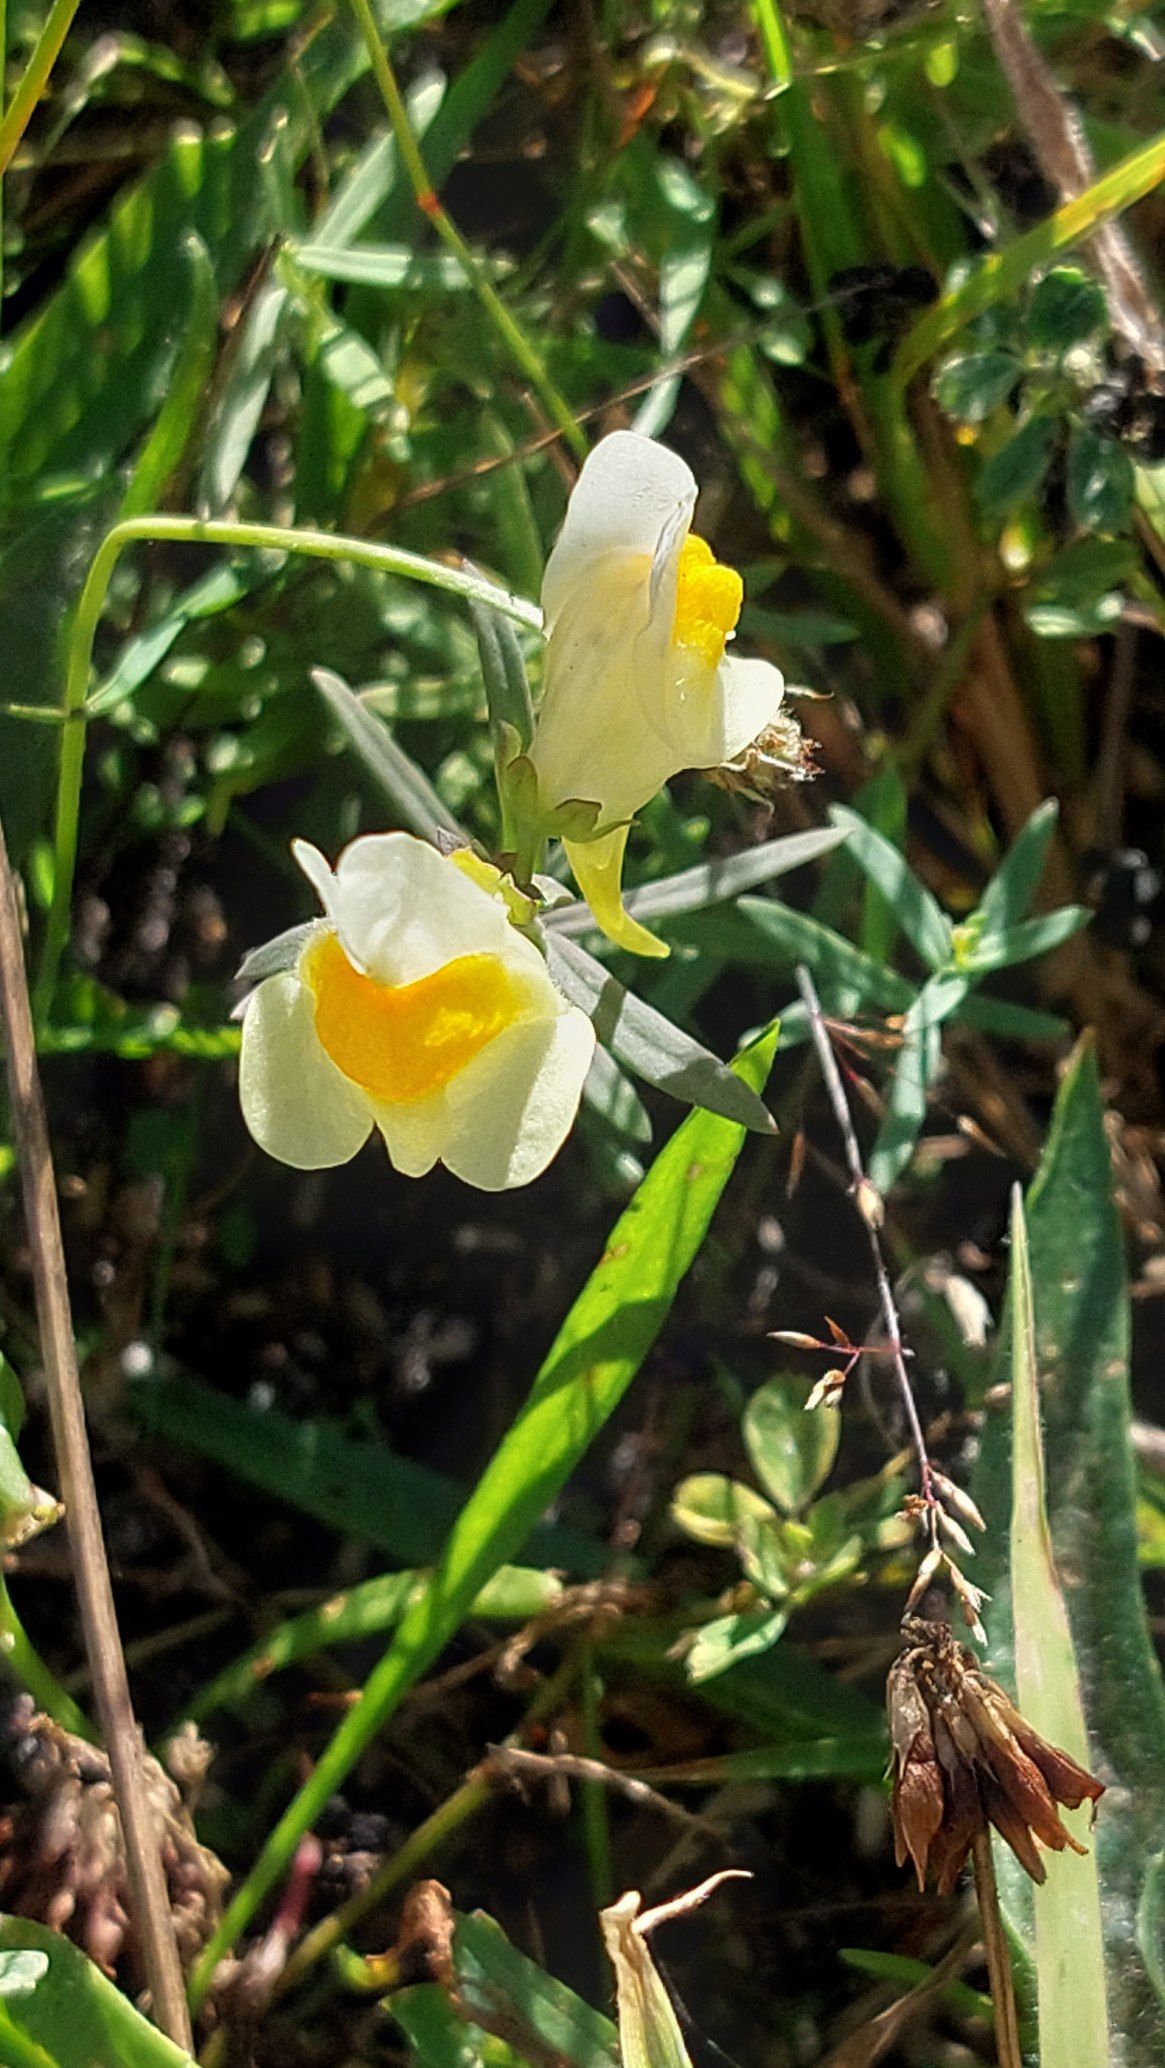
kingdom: Plantae
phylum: Tracheophyta
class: Magnoliopsida
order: Lamiales
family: Plantaginaceae
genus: Linaria
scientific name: Linaria vulgaris
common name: Almindelig torskemund
